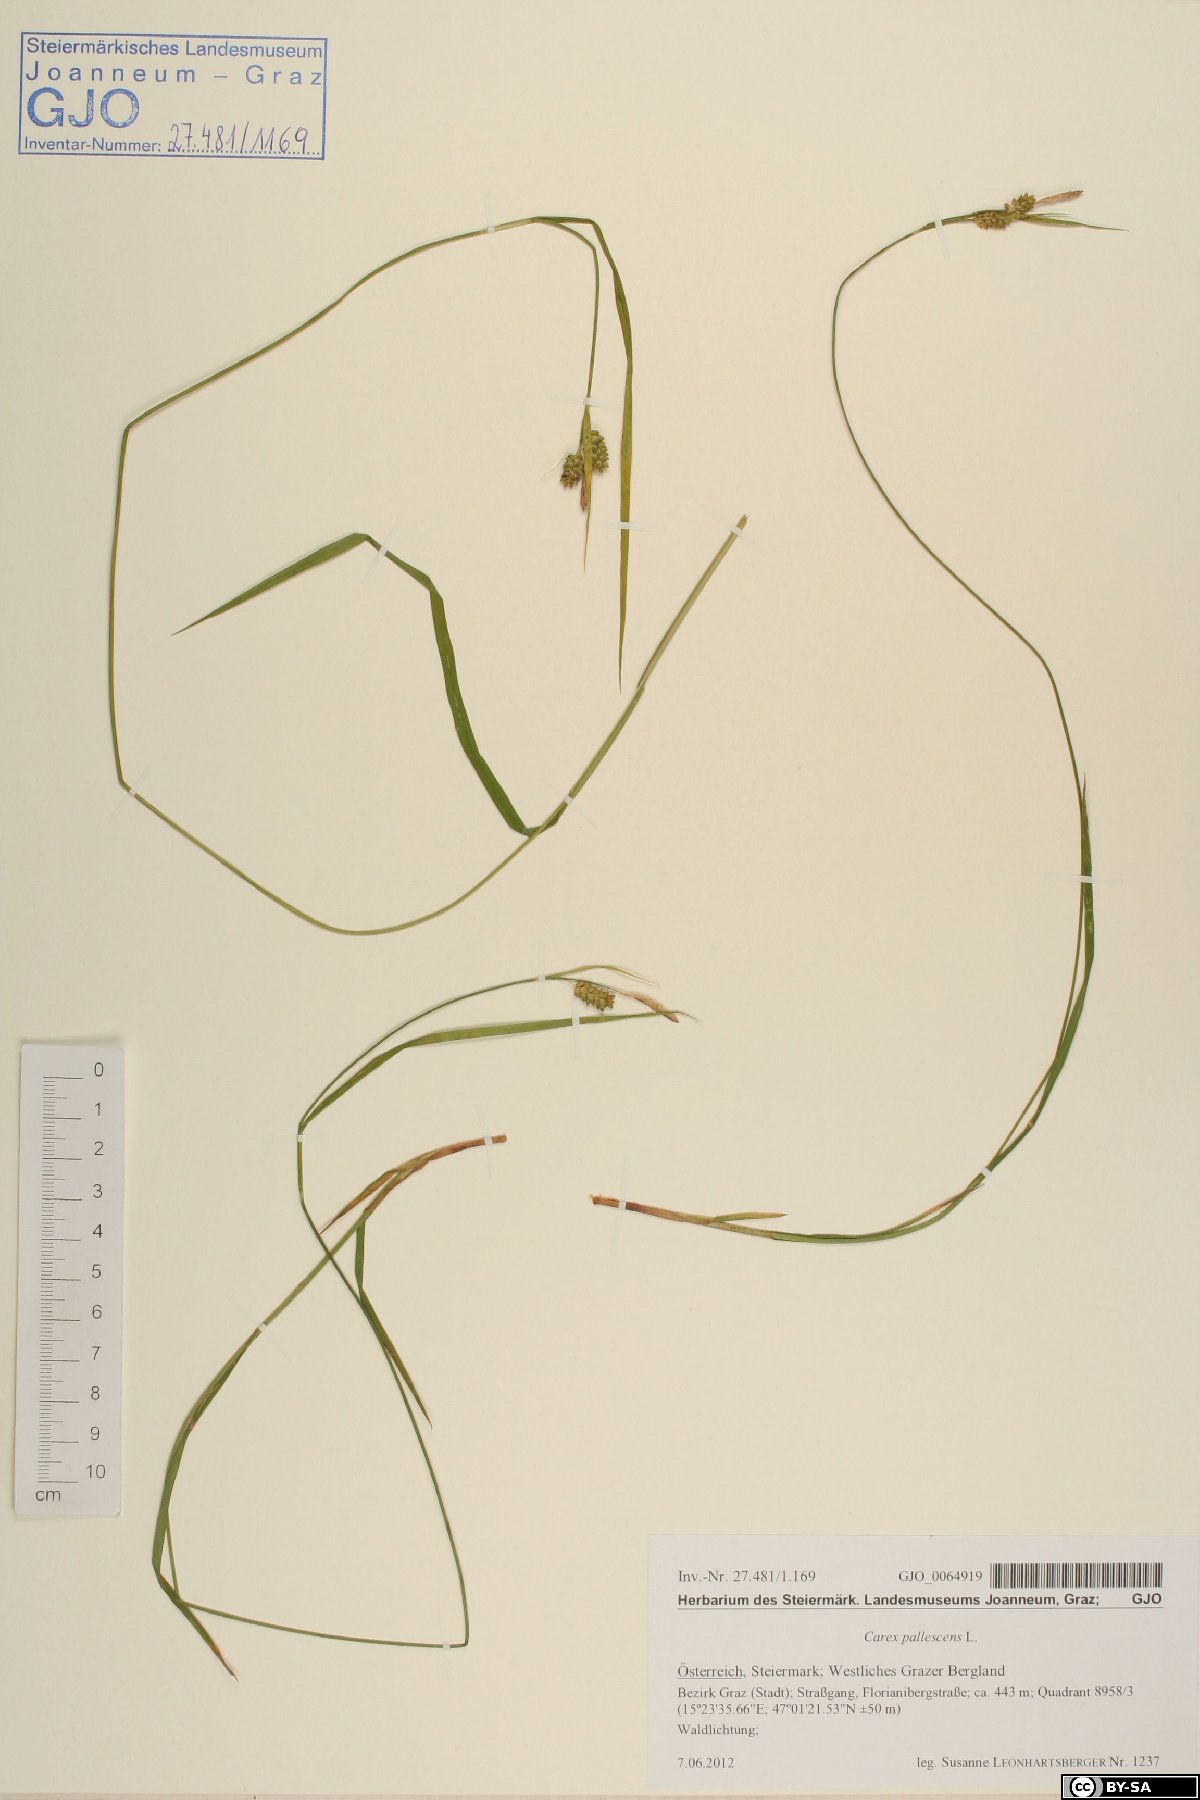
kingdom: Plantae
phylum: Tracheophyta
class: Liliopsida
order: Poales
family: Cyperaceae
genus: Carex
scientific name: Carex pallescens
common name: Pale sedge
